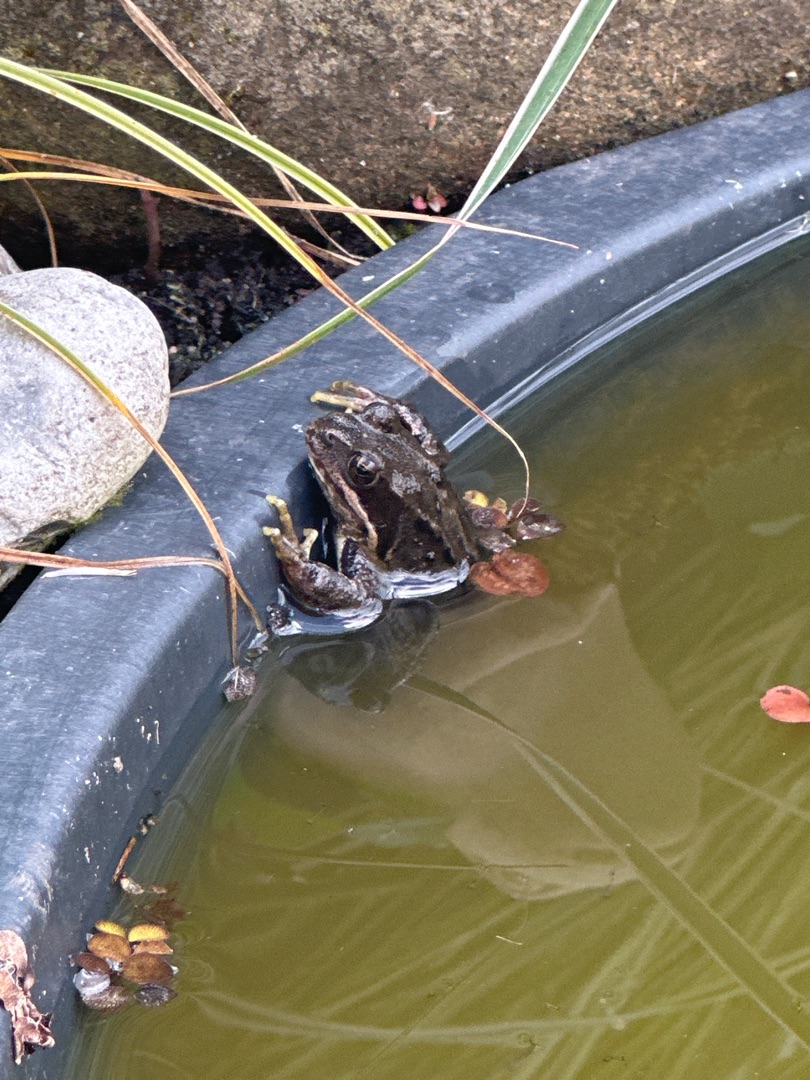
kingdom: Animalia
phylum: Chordata
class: Amphibia
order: Anura
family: Ranidae
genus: Rana
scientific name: Rana temporaria
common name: Butsnudet frø
